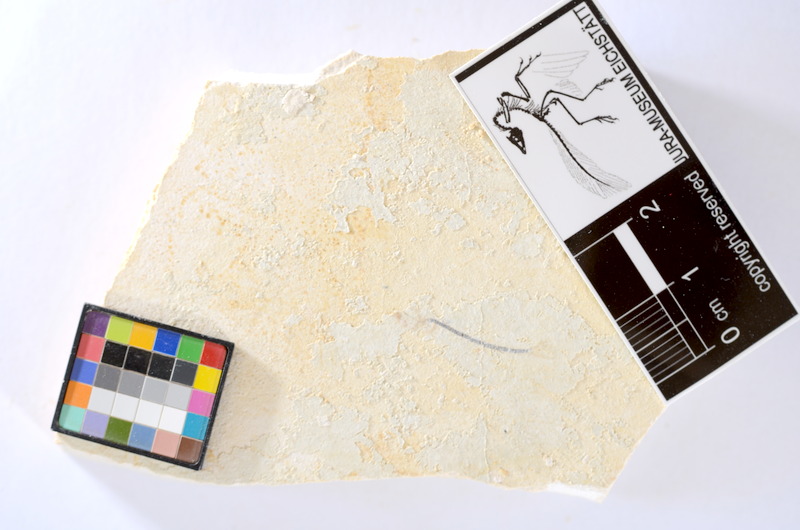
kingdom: Animalia
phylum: Chordata
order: Salmoniformes
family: Orthogonikleithridae
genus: Orthogonikleithrus
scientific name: Orthogonikleithrus hoelli
